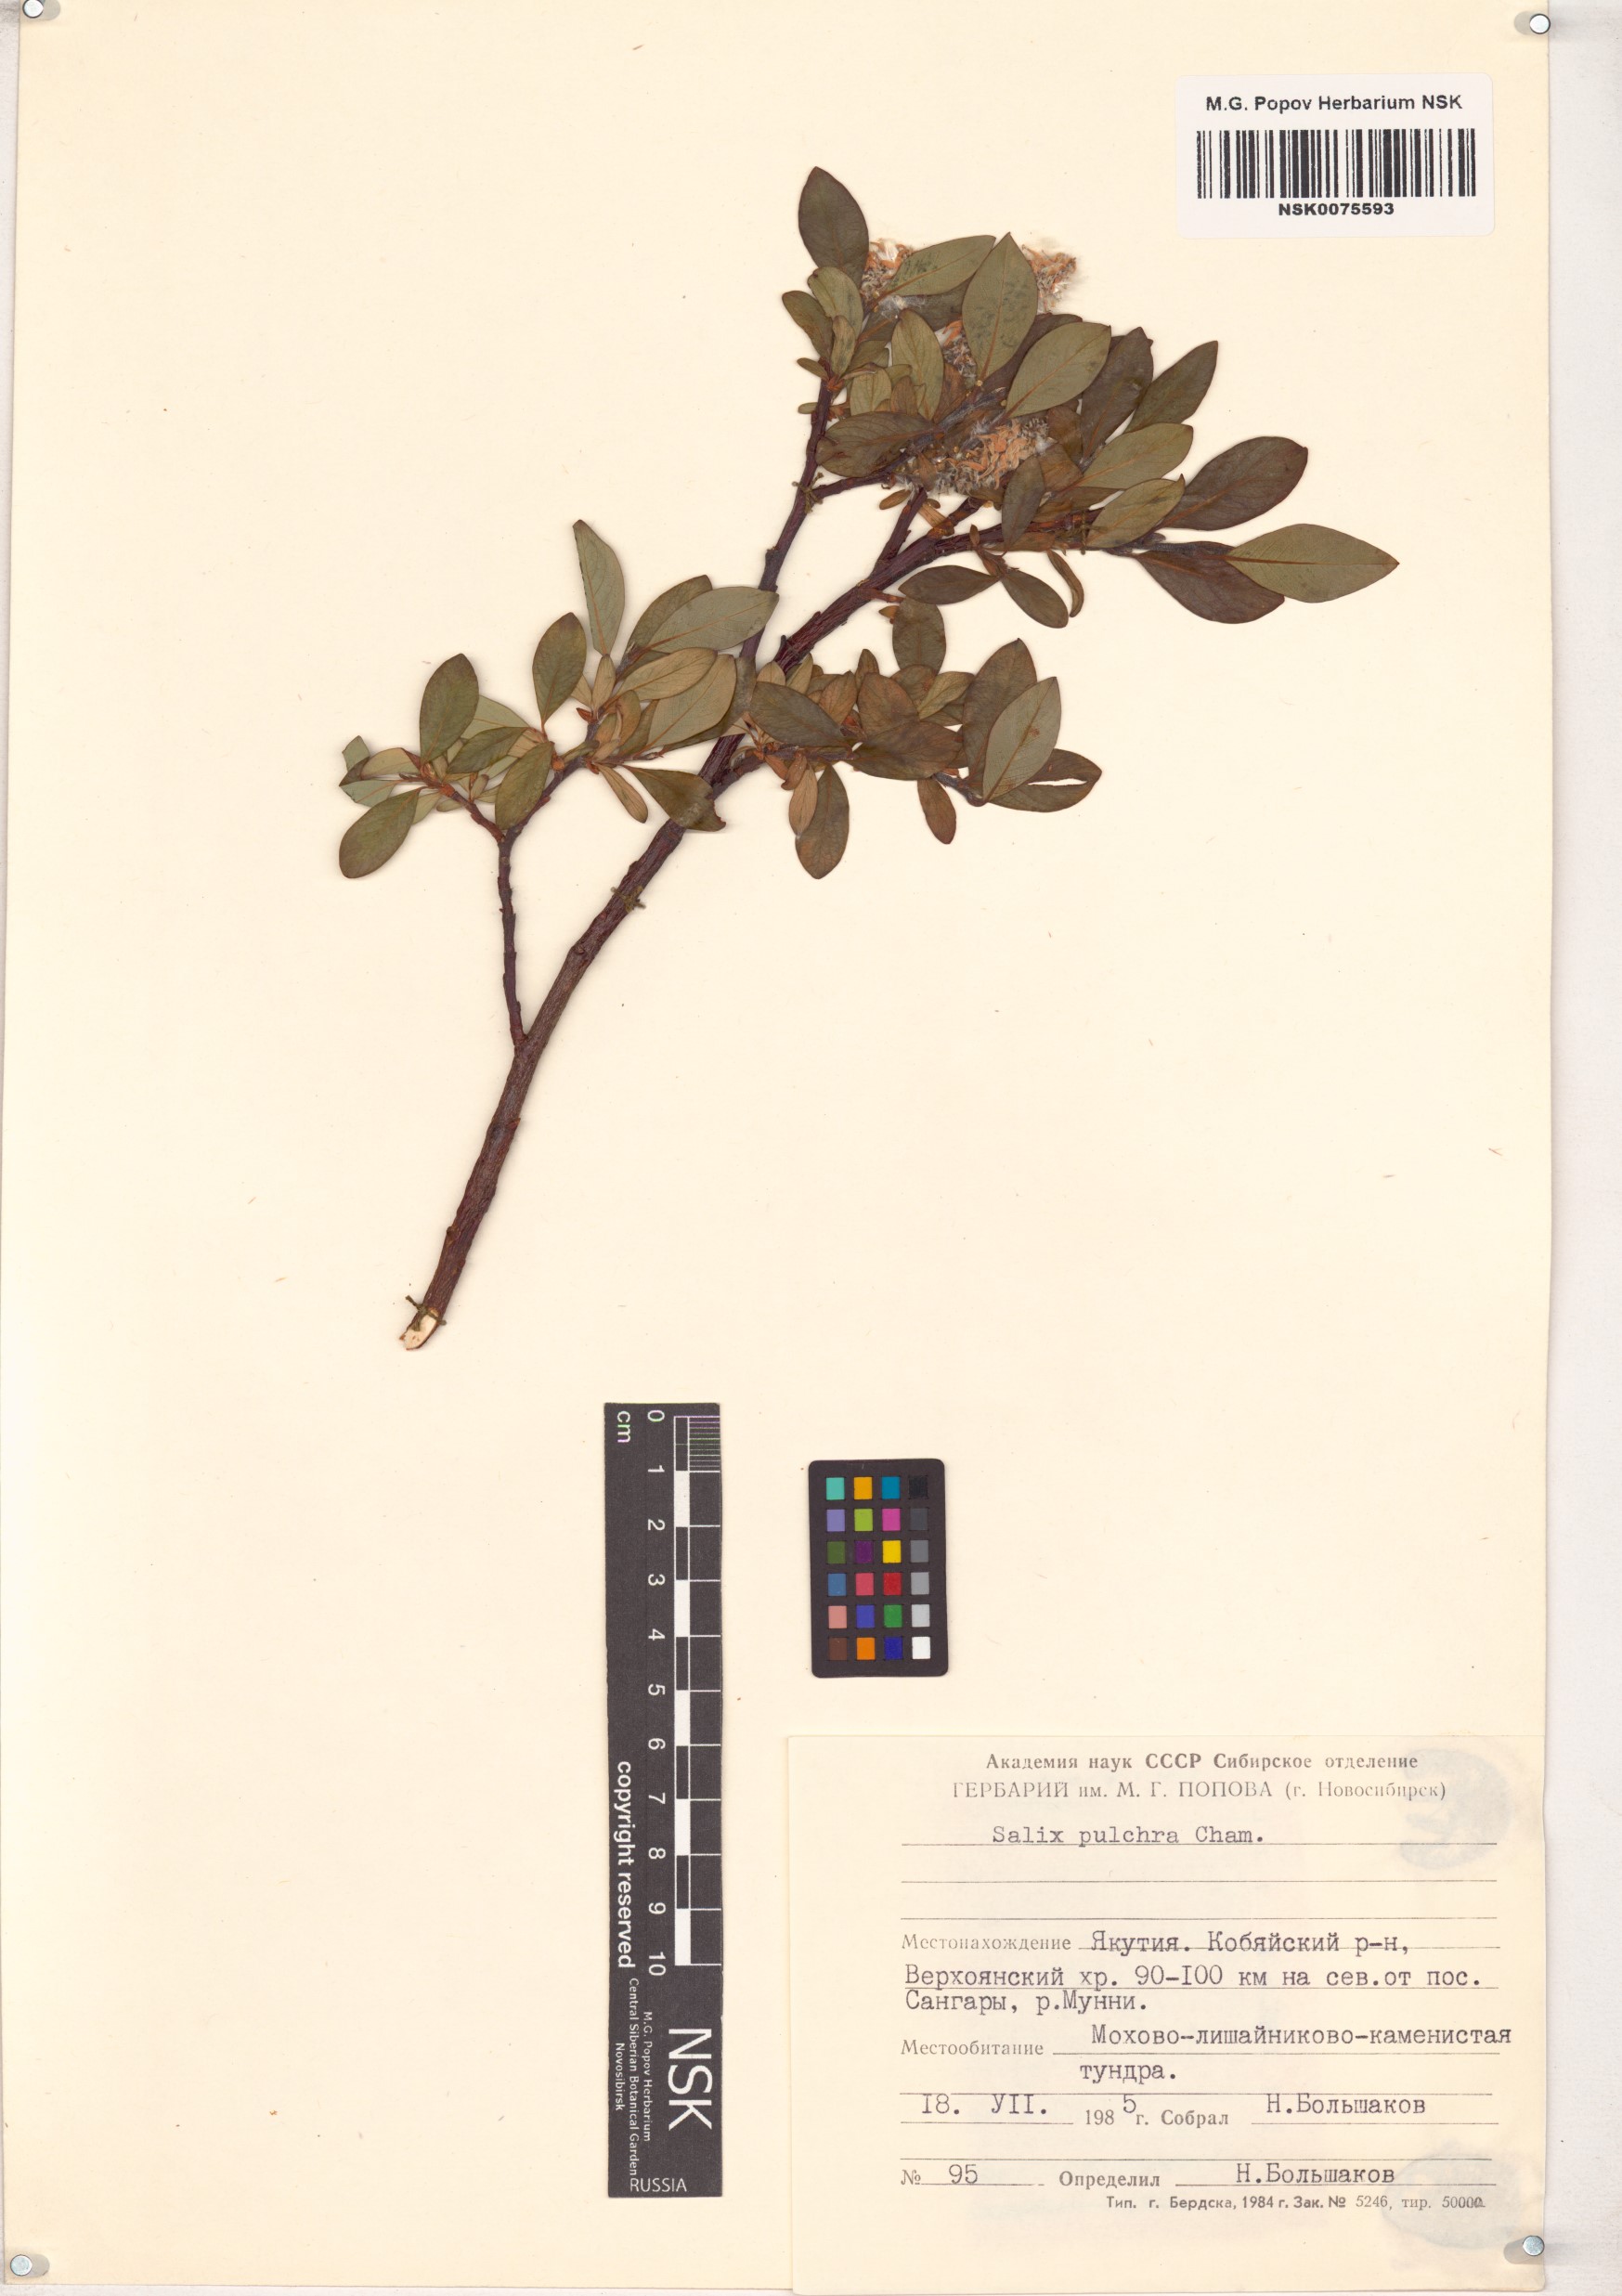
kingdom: Plantae
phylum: Tracheophyta
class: Magnoliopsida
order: Malpighiales
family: Salicaceae
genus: Salix
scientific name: Salix pulchra
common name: Diamond-leaved willow
